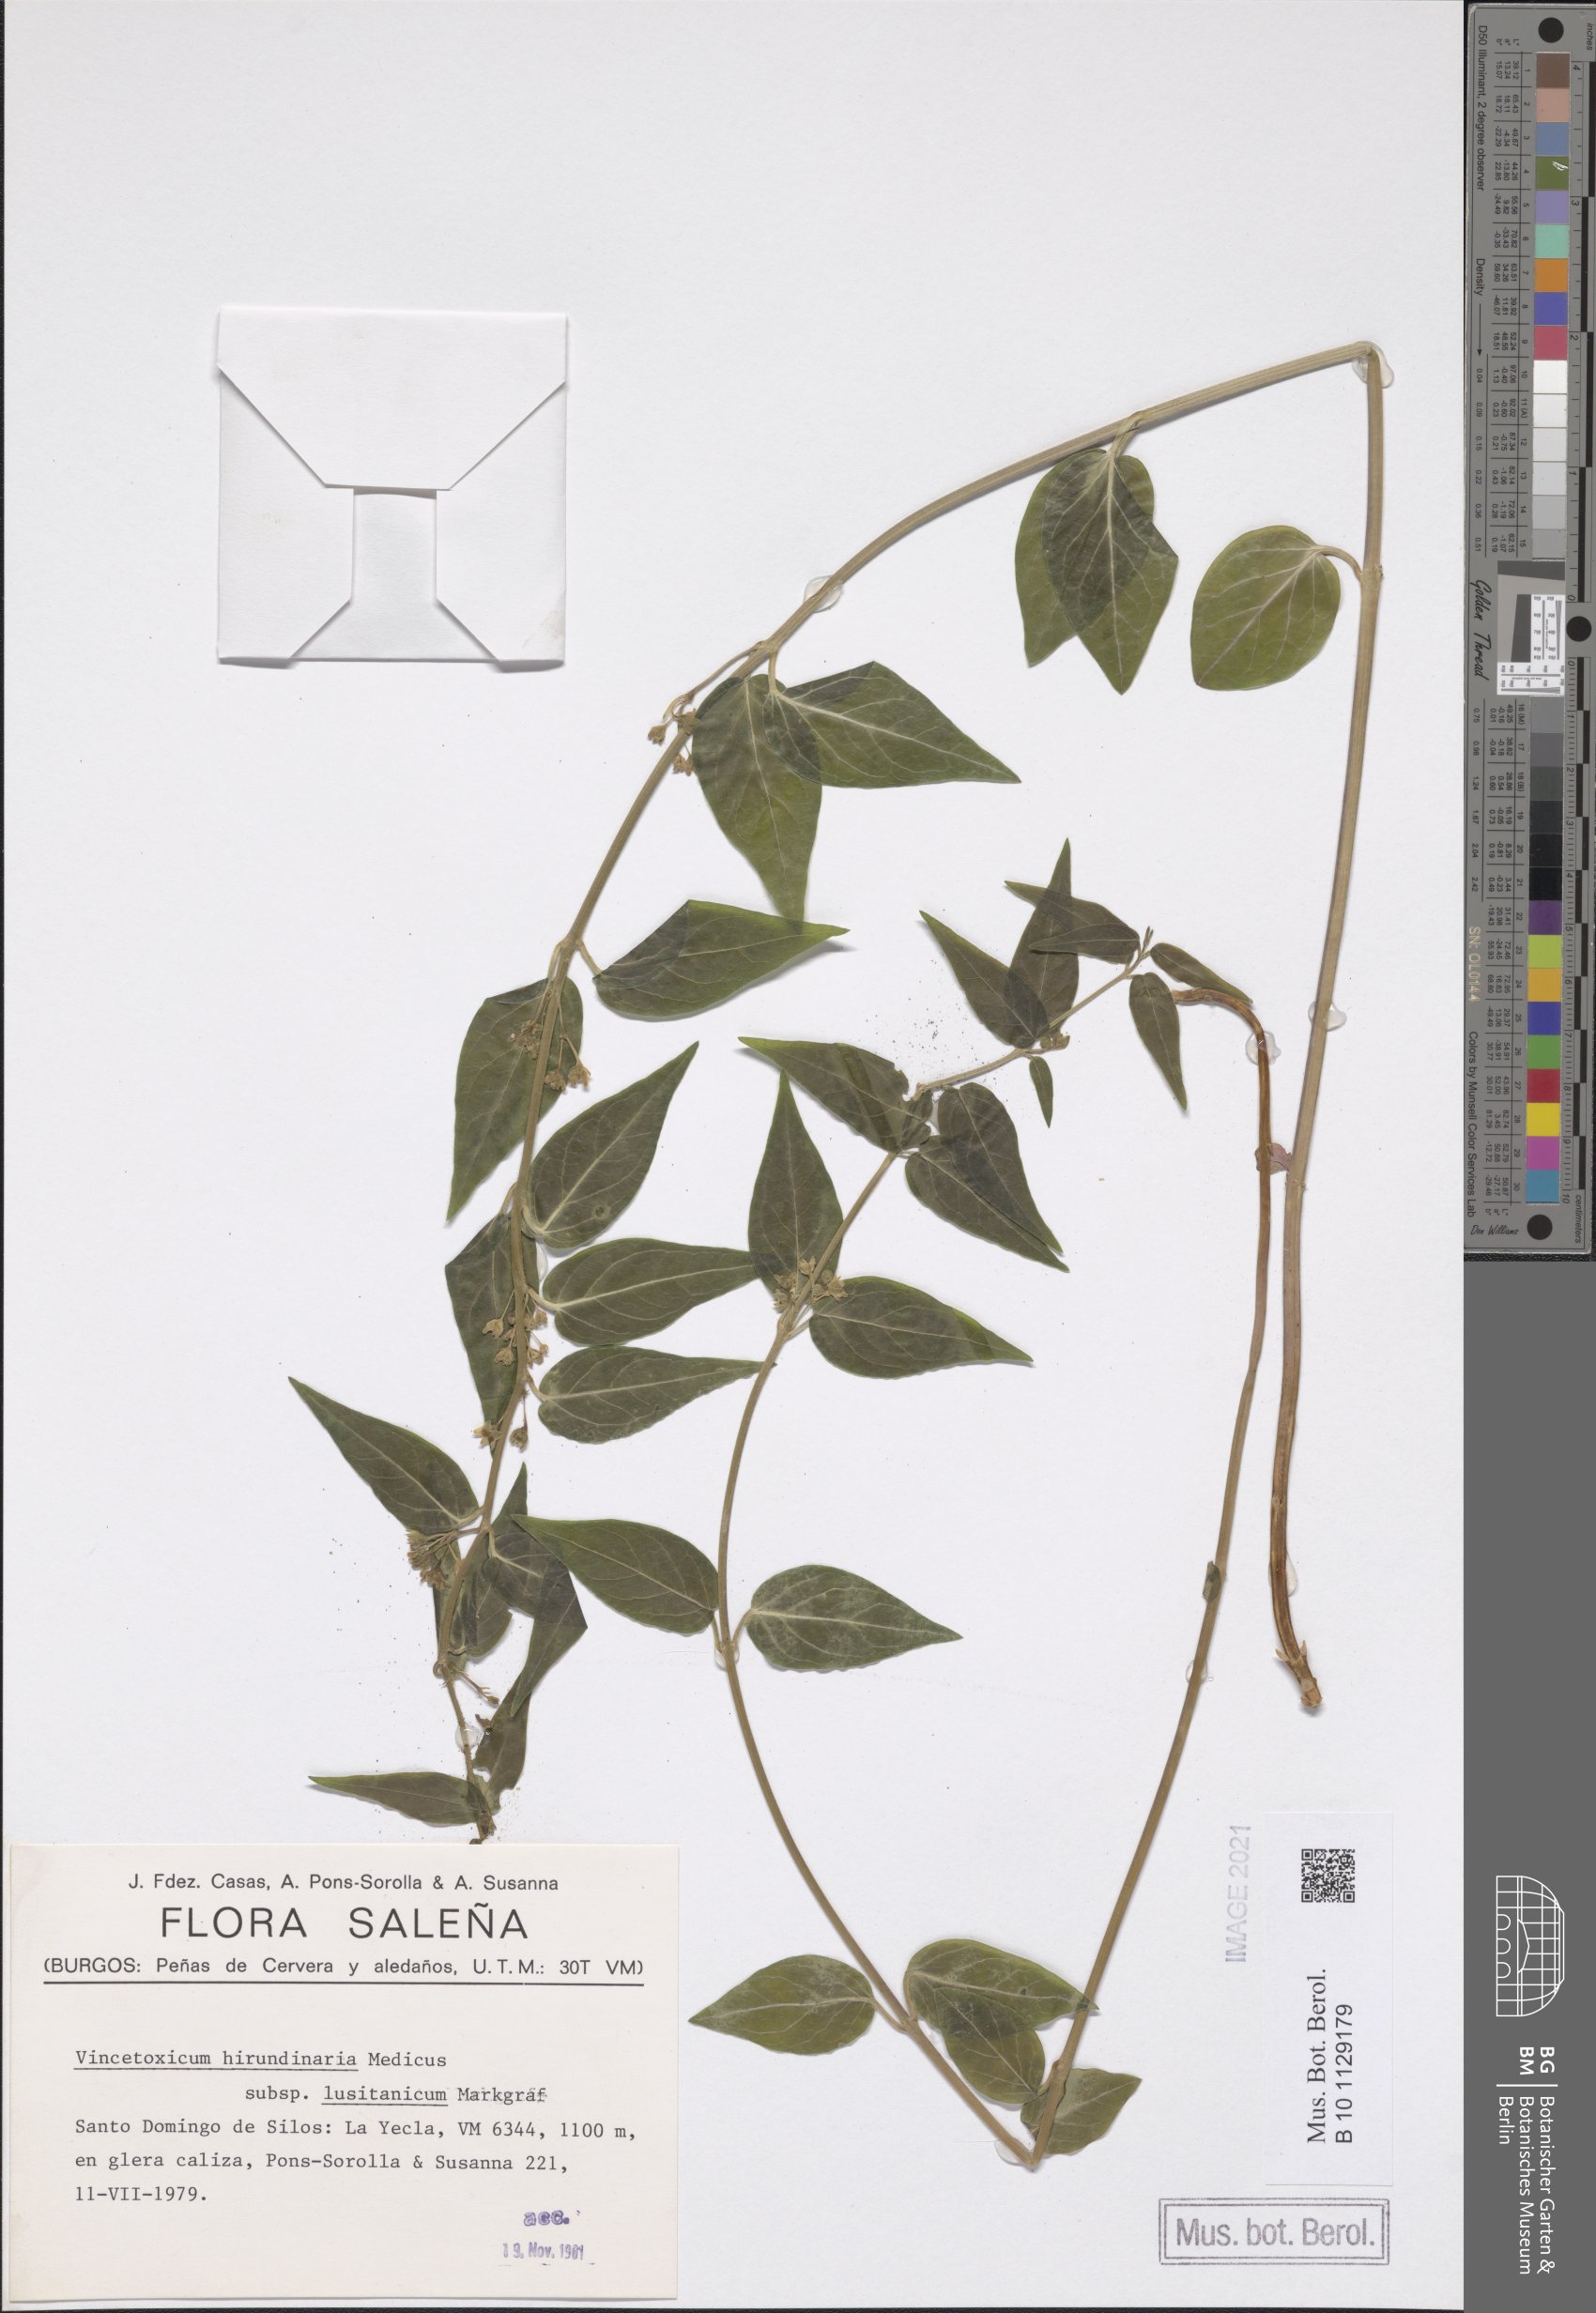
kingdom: Plantae
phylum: Tracheophyta
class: Magnoliopsida
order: Gentianales
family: Apocynaceae
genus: Vincetoxicum
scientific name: Vincetoxicum hirundinaria
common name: White swallowwort
